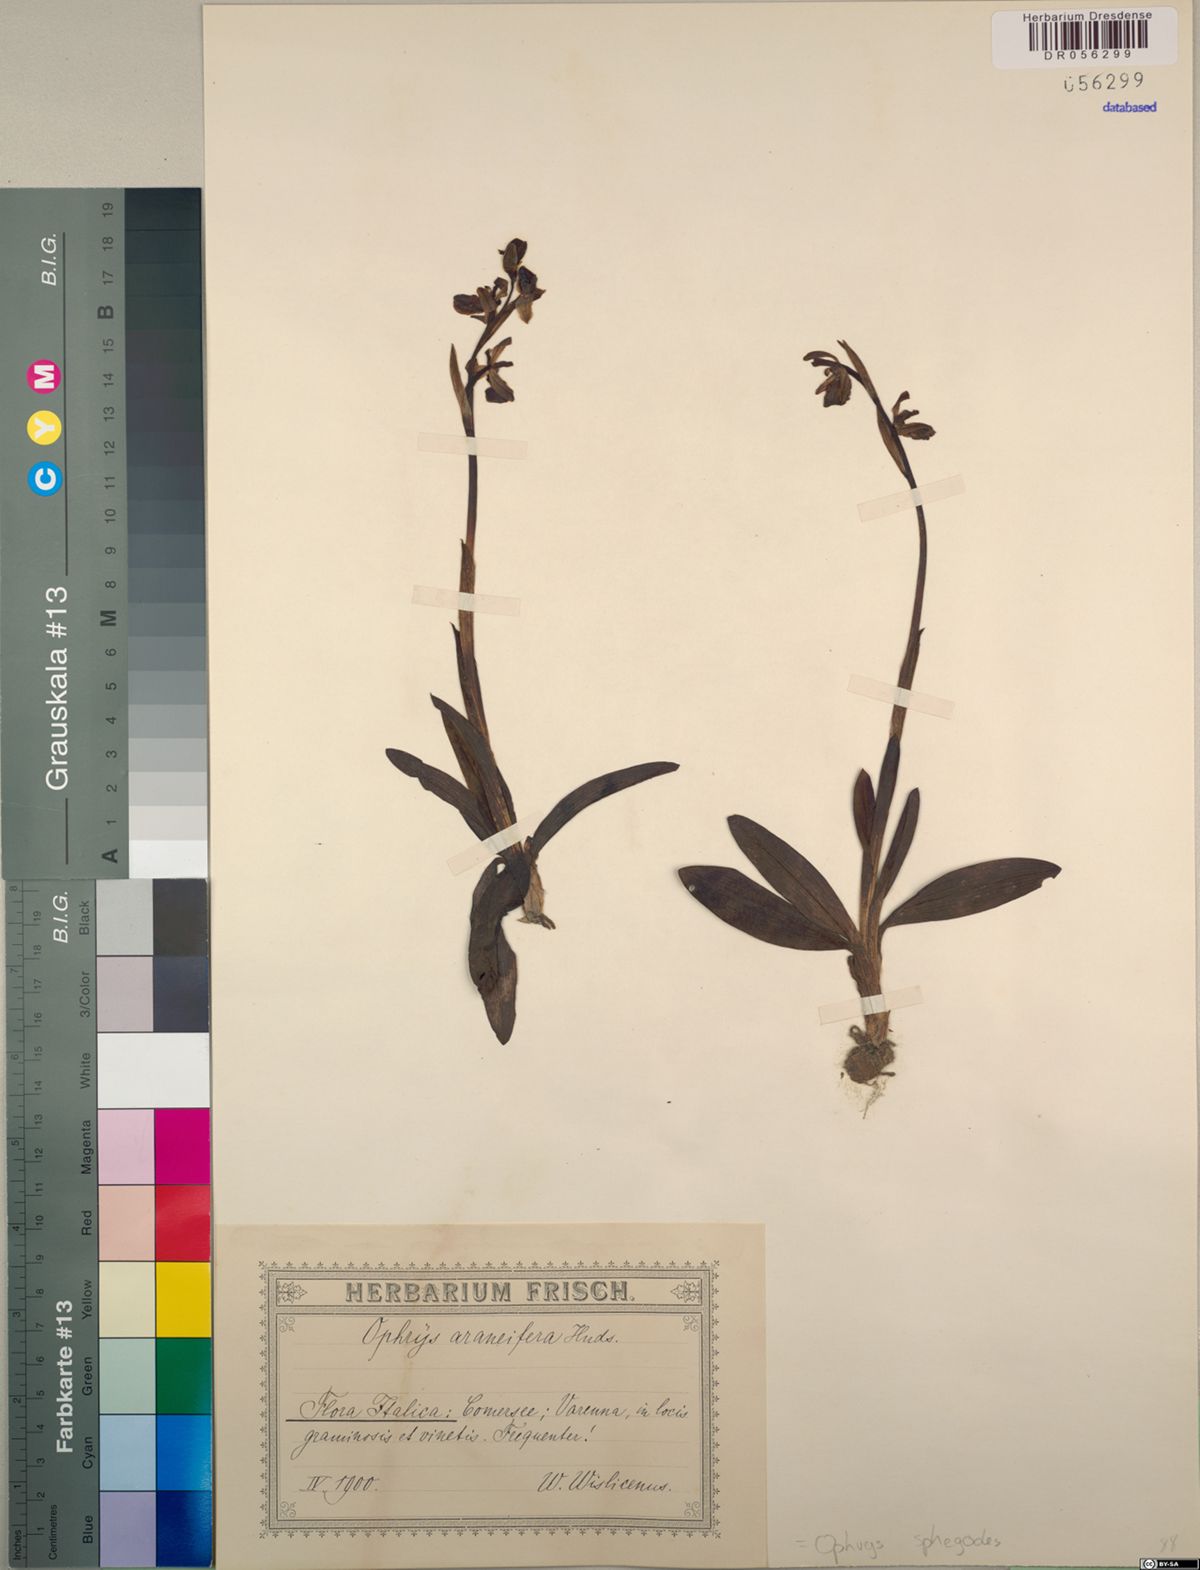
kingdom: Plantae
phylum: Tracheophyta
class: Liliopsida
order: Asparagales
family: Orchidaceae
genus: Ophrys
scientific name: Ophrys sphegodes
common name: Early spider-orchid
